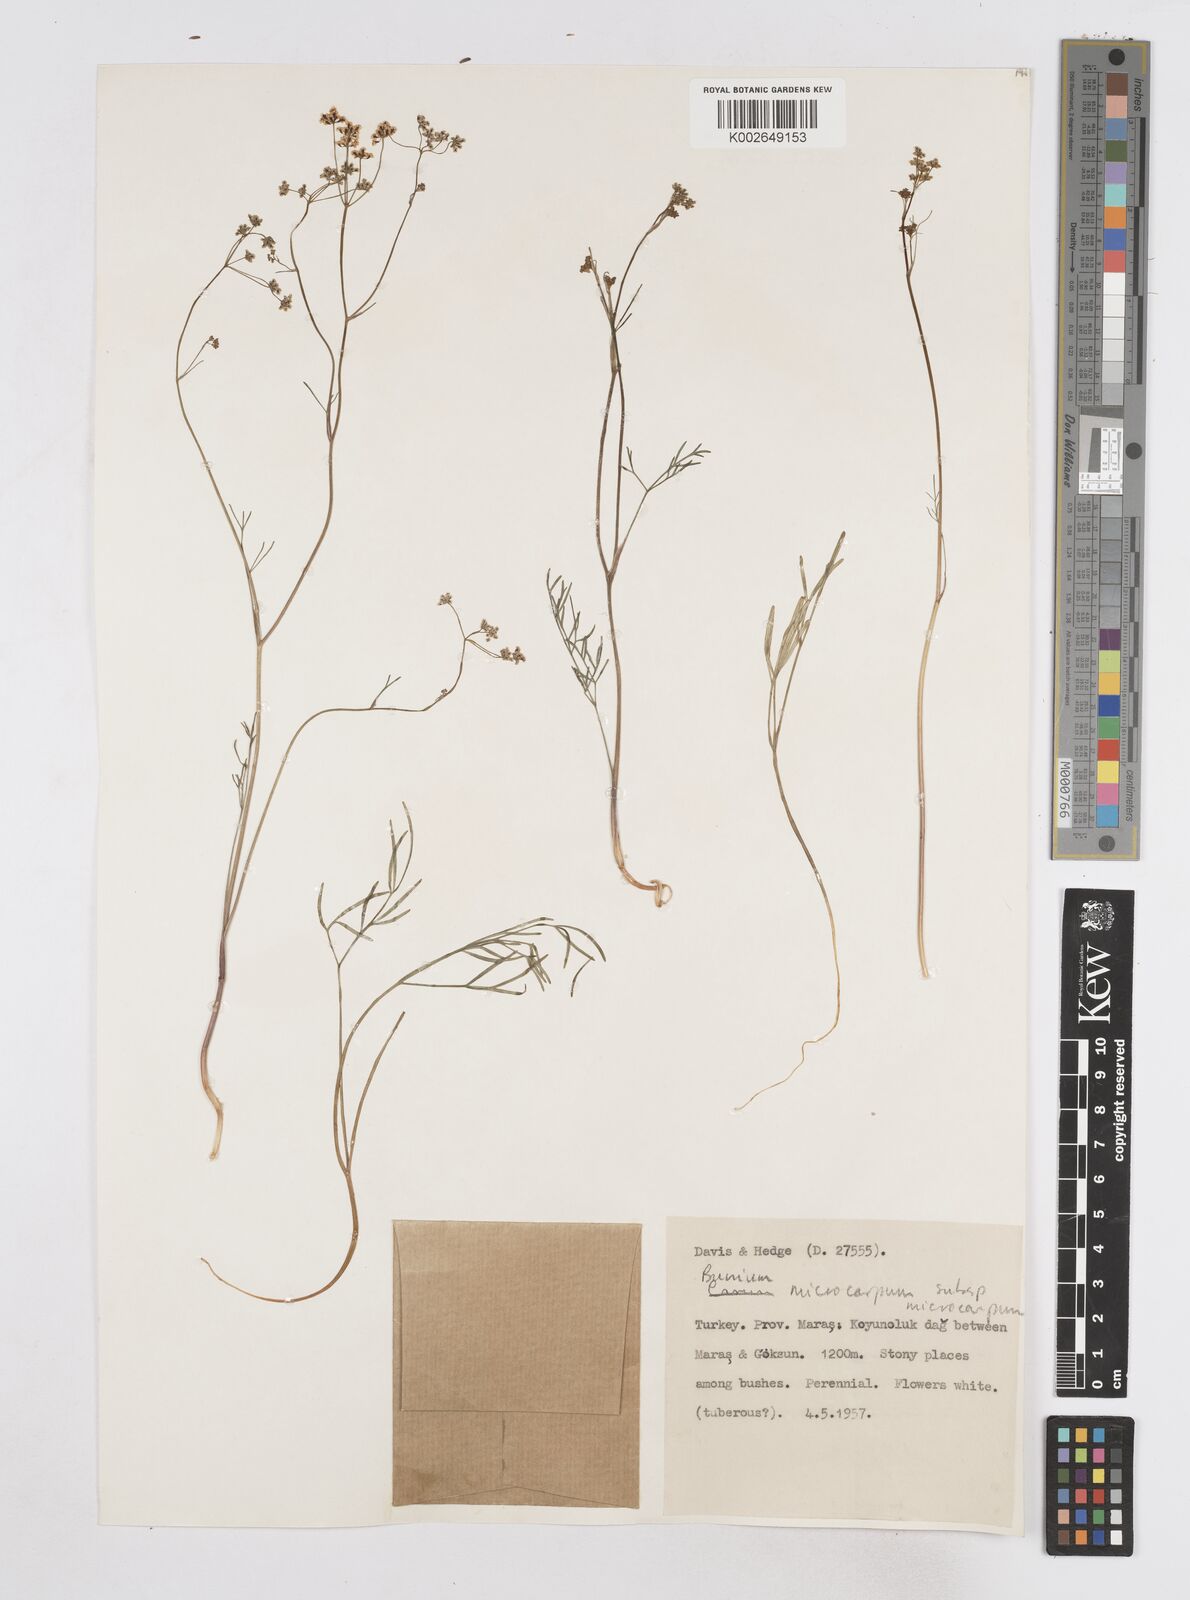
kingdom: Plantae
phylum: Tracheophyta
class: Magnoliopsida
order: Apiales
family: Apiaceae
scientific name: Apiaceae
